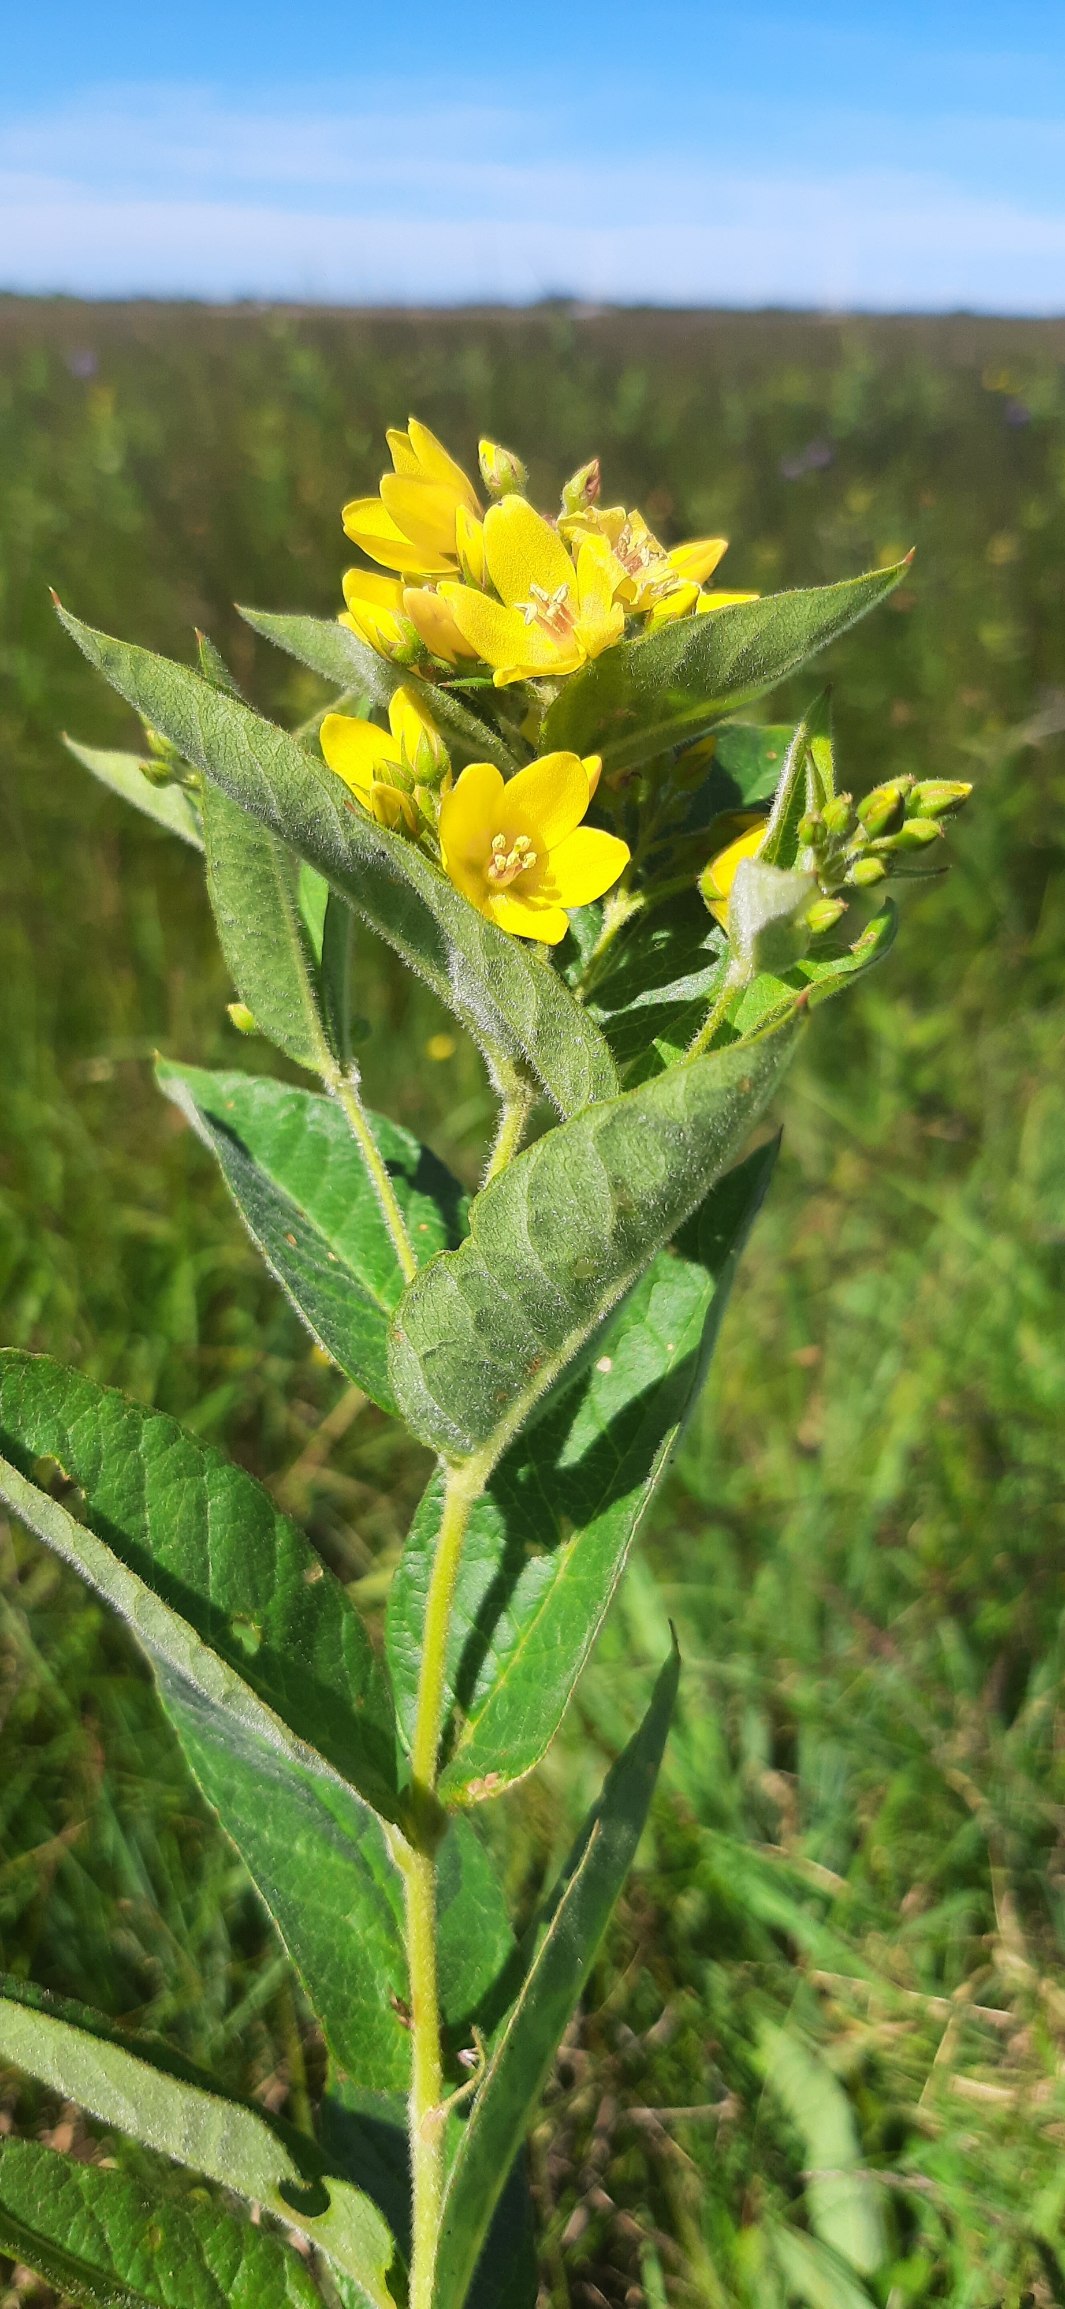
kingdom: Plantae
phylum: Tracheophyta
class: Magnoliopsida
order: Ericales
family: Primulaceae
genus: Lysimachia
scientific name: Lysimachia vulgaris
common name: Almindelig fredløs
